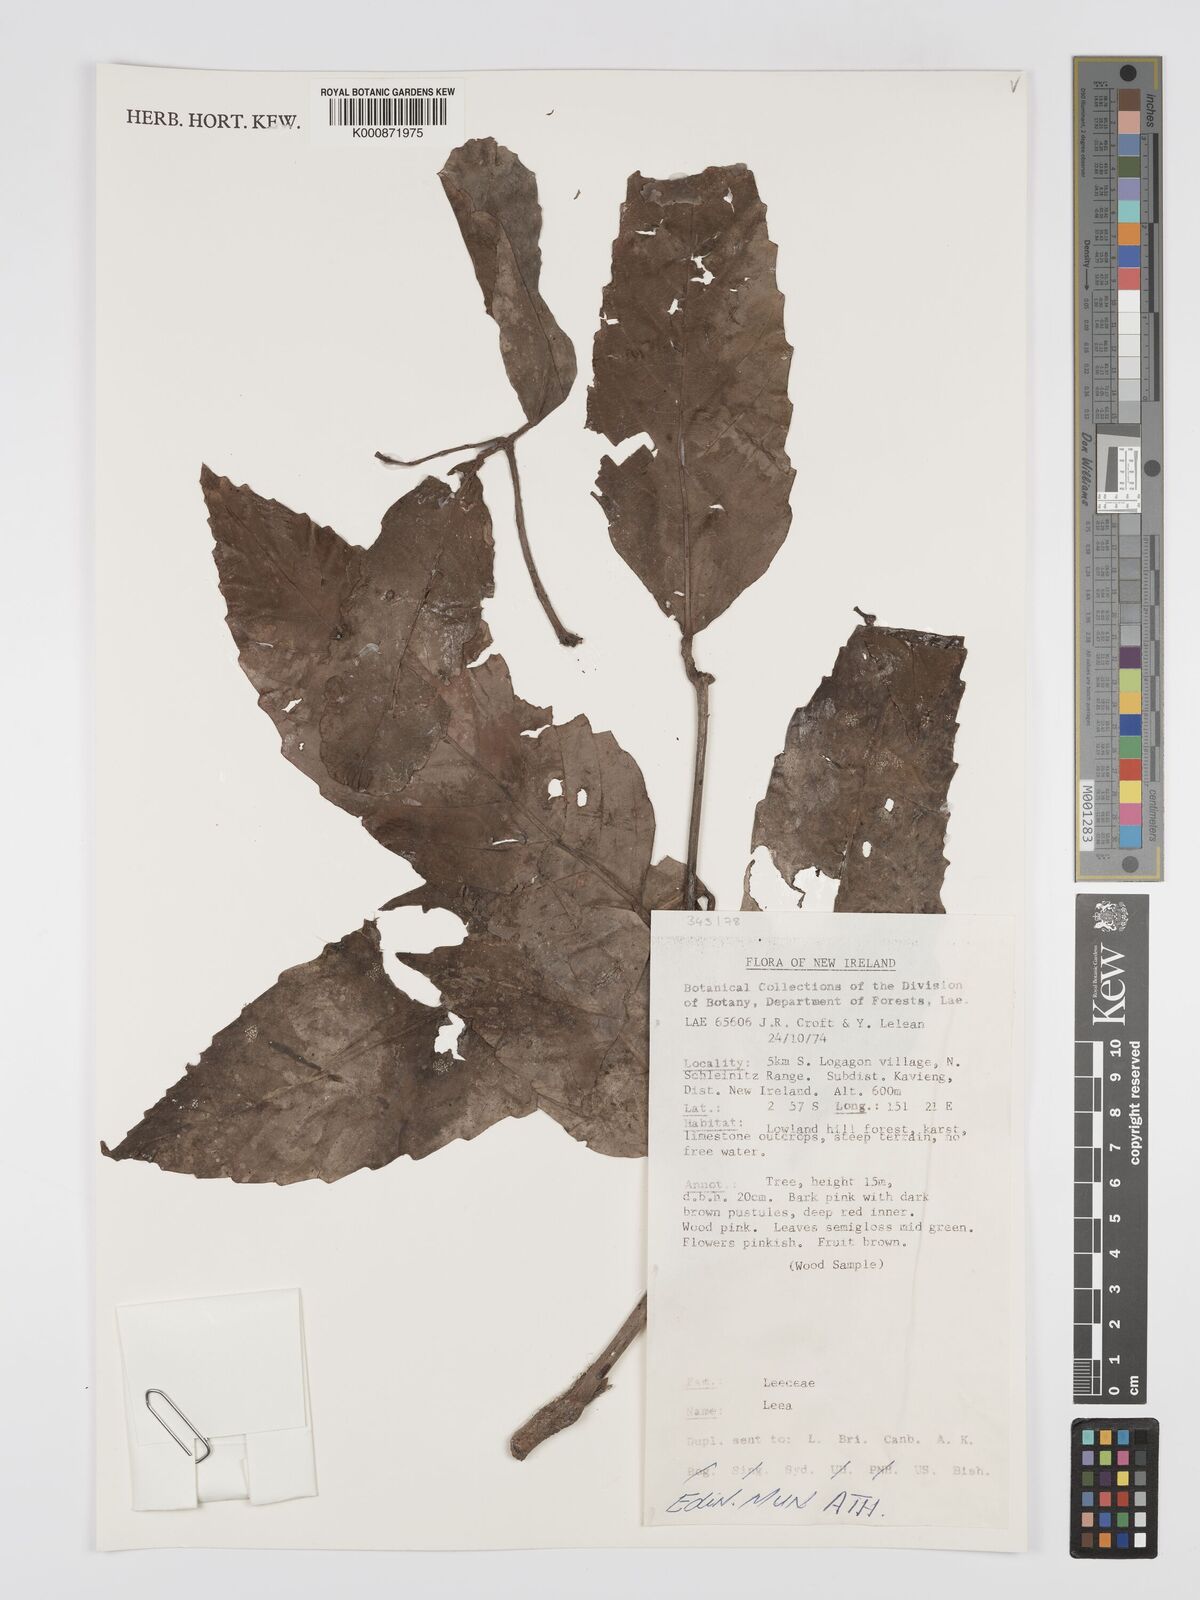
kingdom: Plantae
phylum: Tracheophyta
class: Magnoliopsida
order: Vitales
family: Vitaceae
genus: Leea
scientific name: Leea
